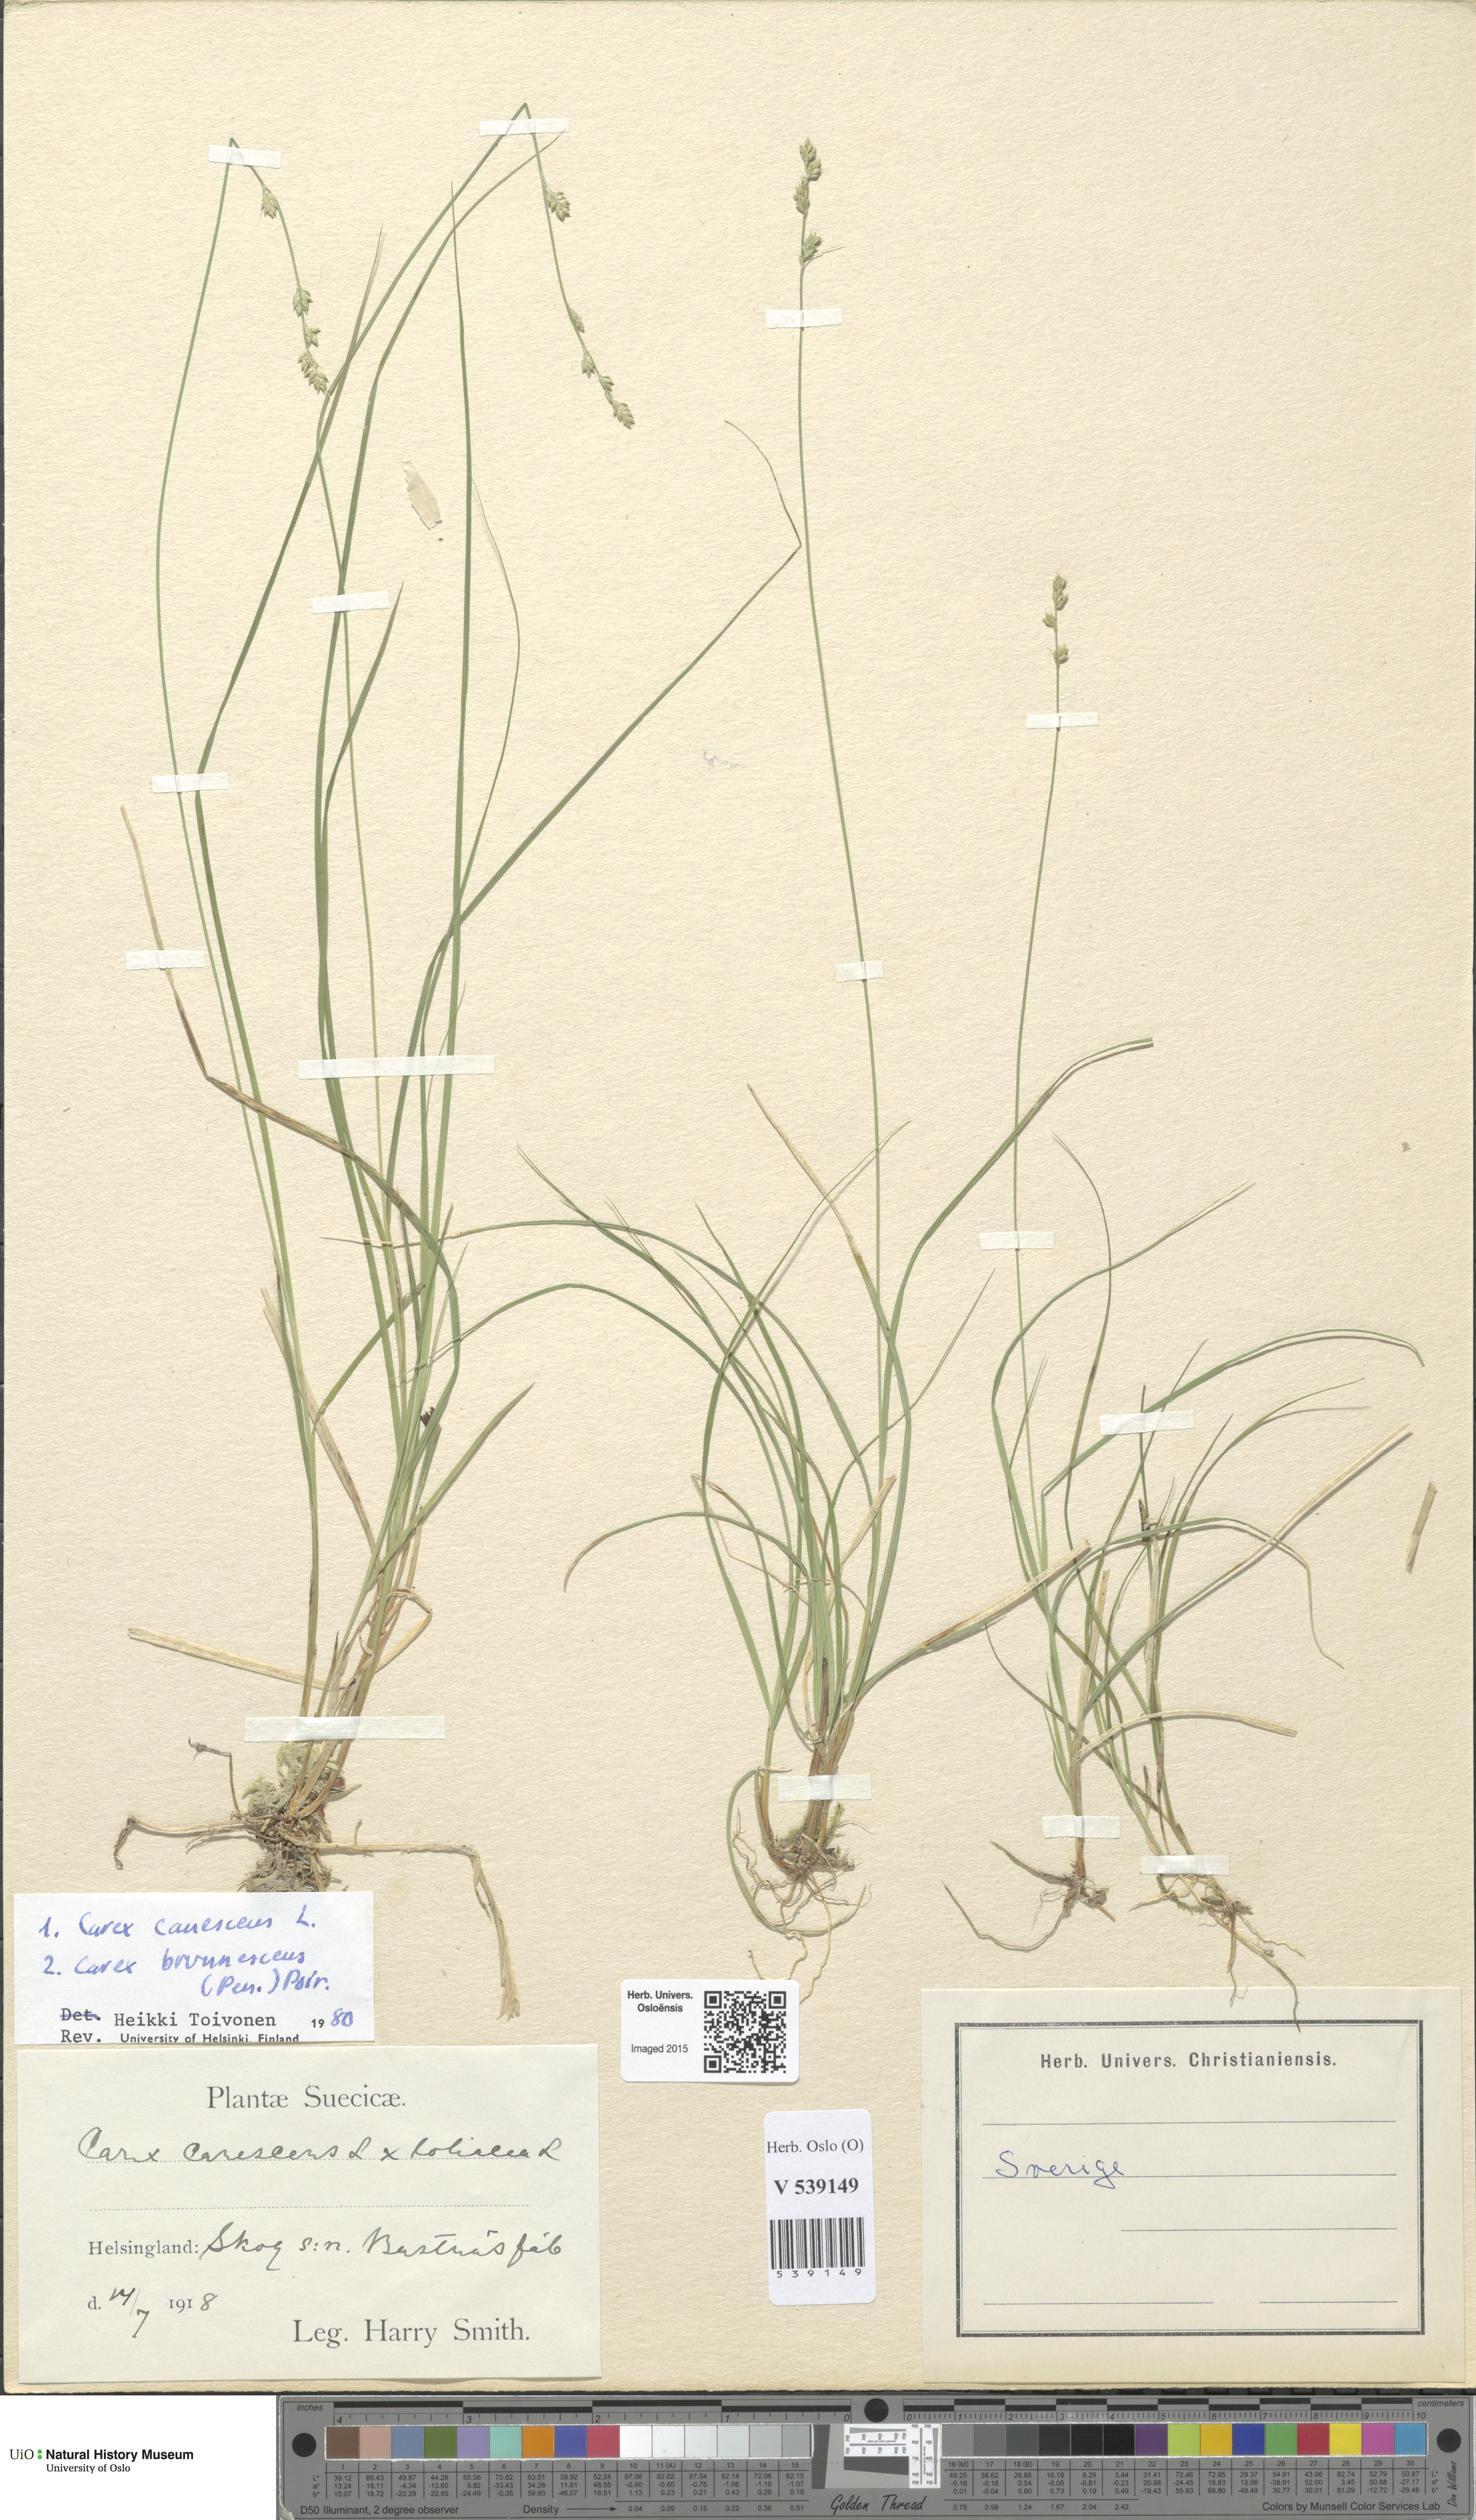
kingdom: Plantae
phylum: Tracheophyta
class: Liliopsida
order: Poales
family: Cyperaceae
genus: Carex
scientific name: Carex
